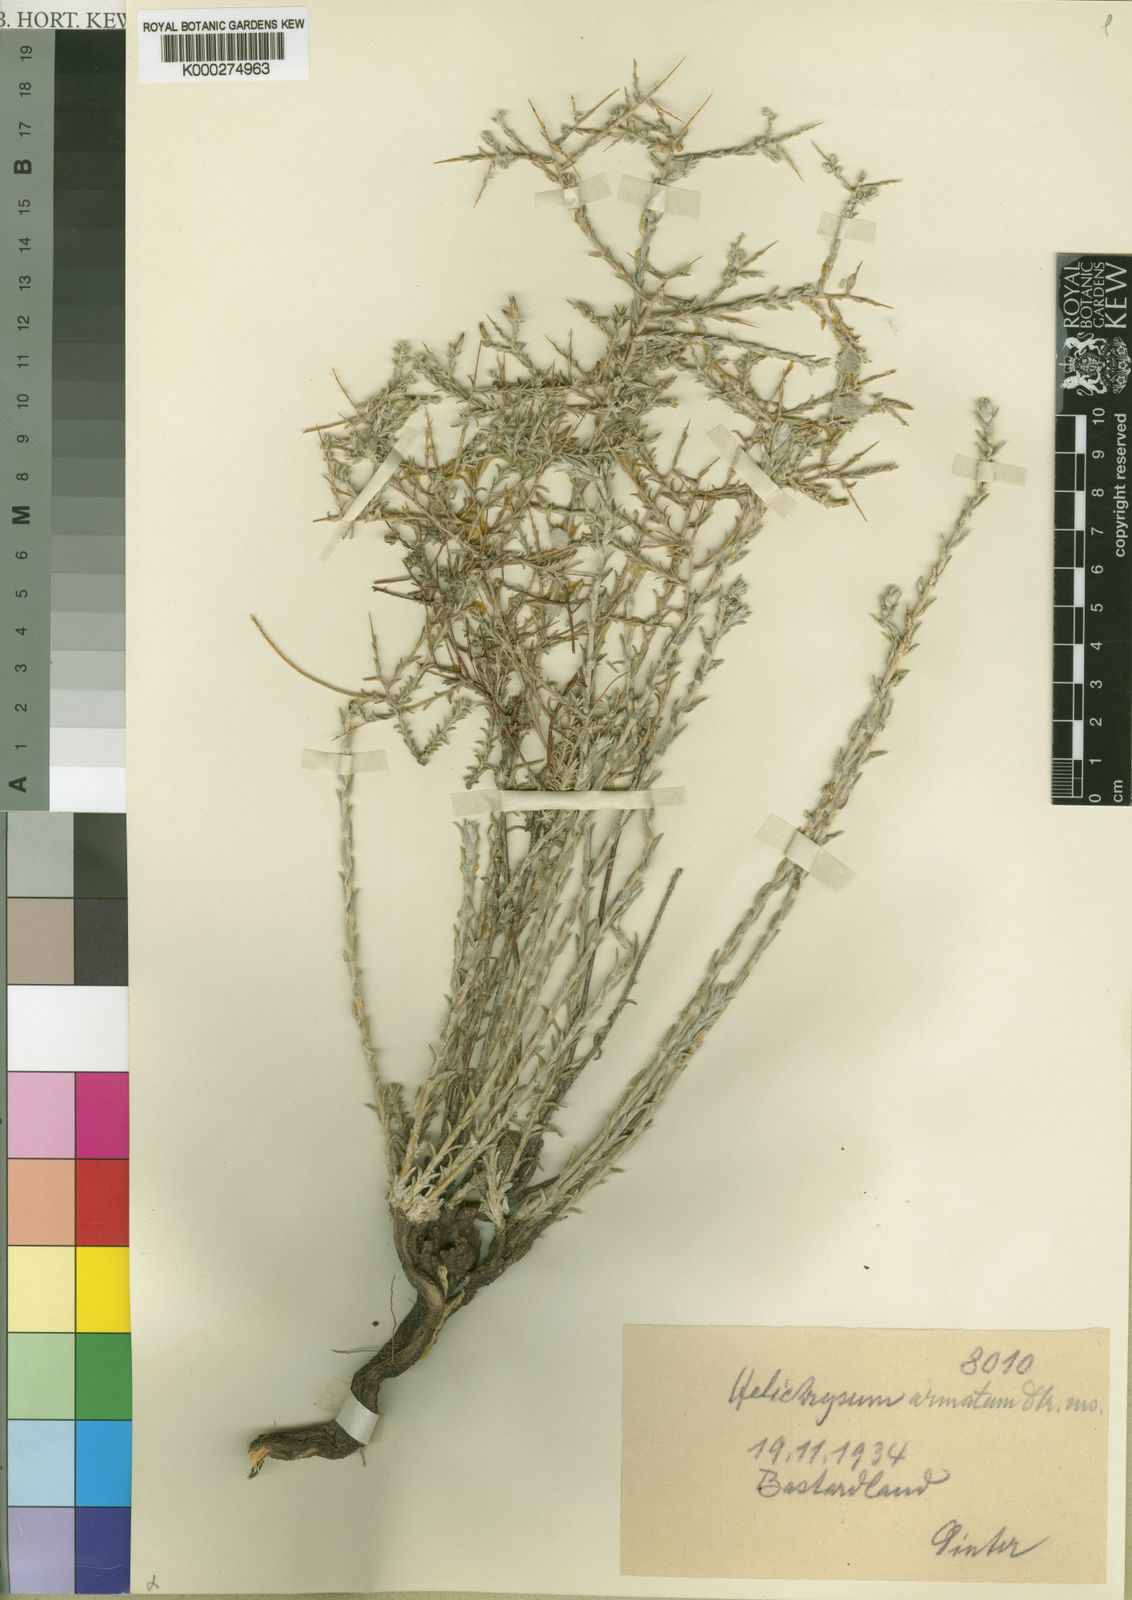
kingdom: Plantae
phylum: Tracheophyta
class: Magnoliopsida
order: Asterales
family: Asteraceae
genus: Helichrysum
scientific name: Helichrysum
